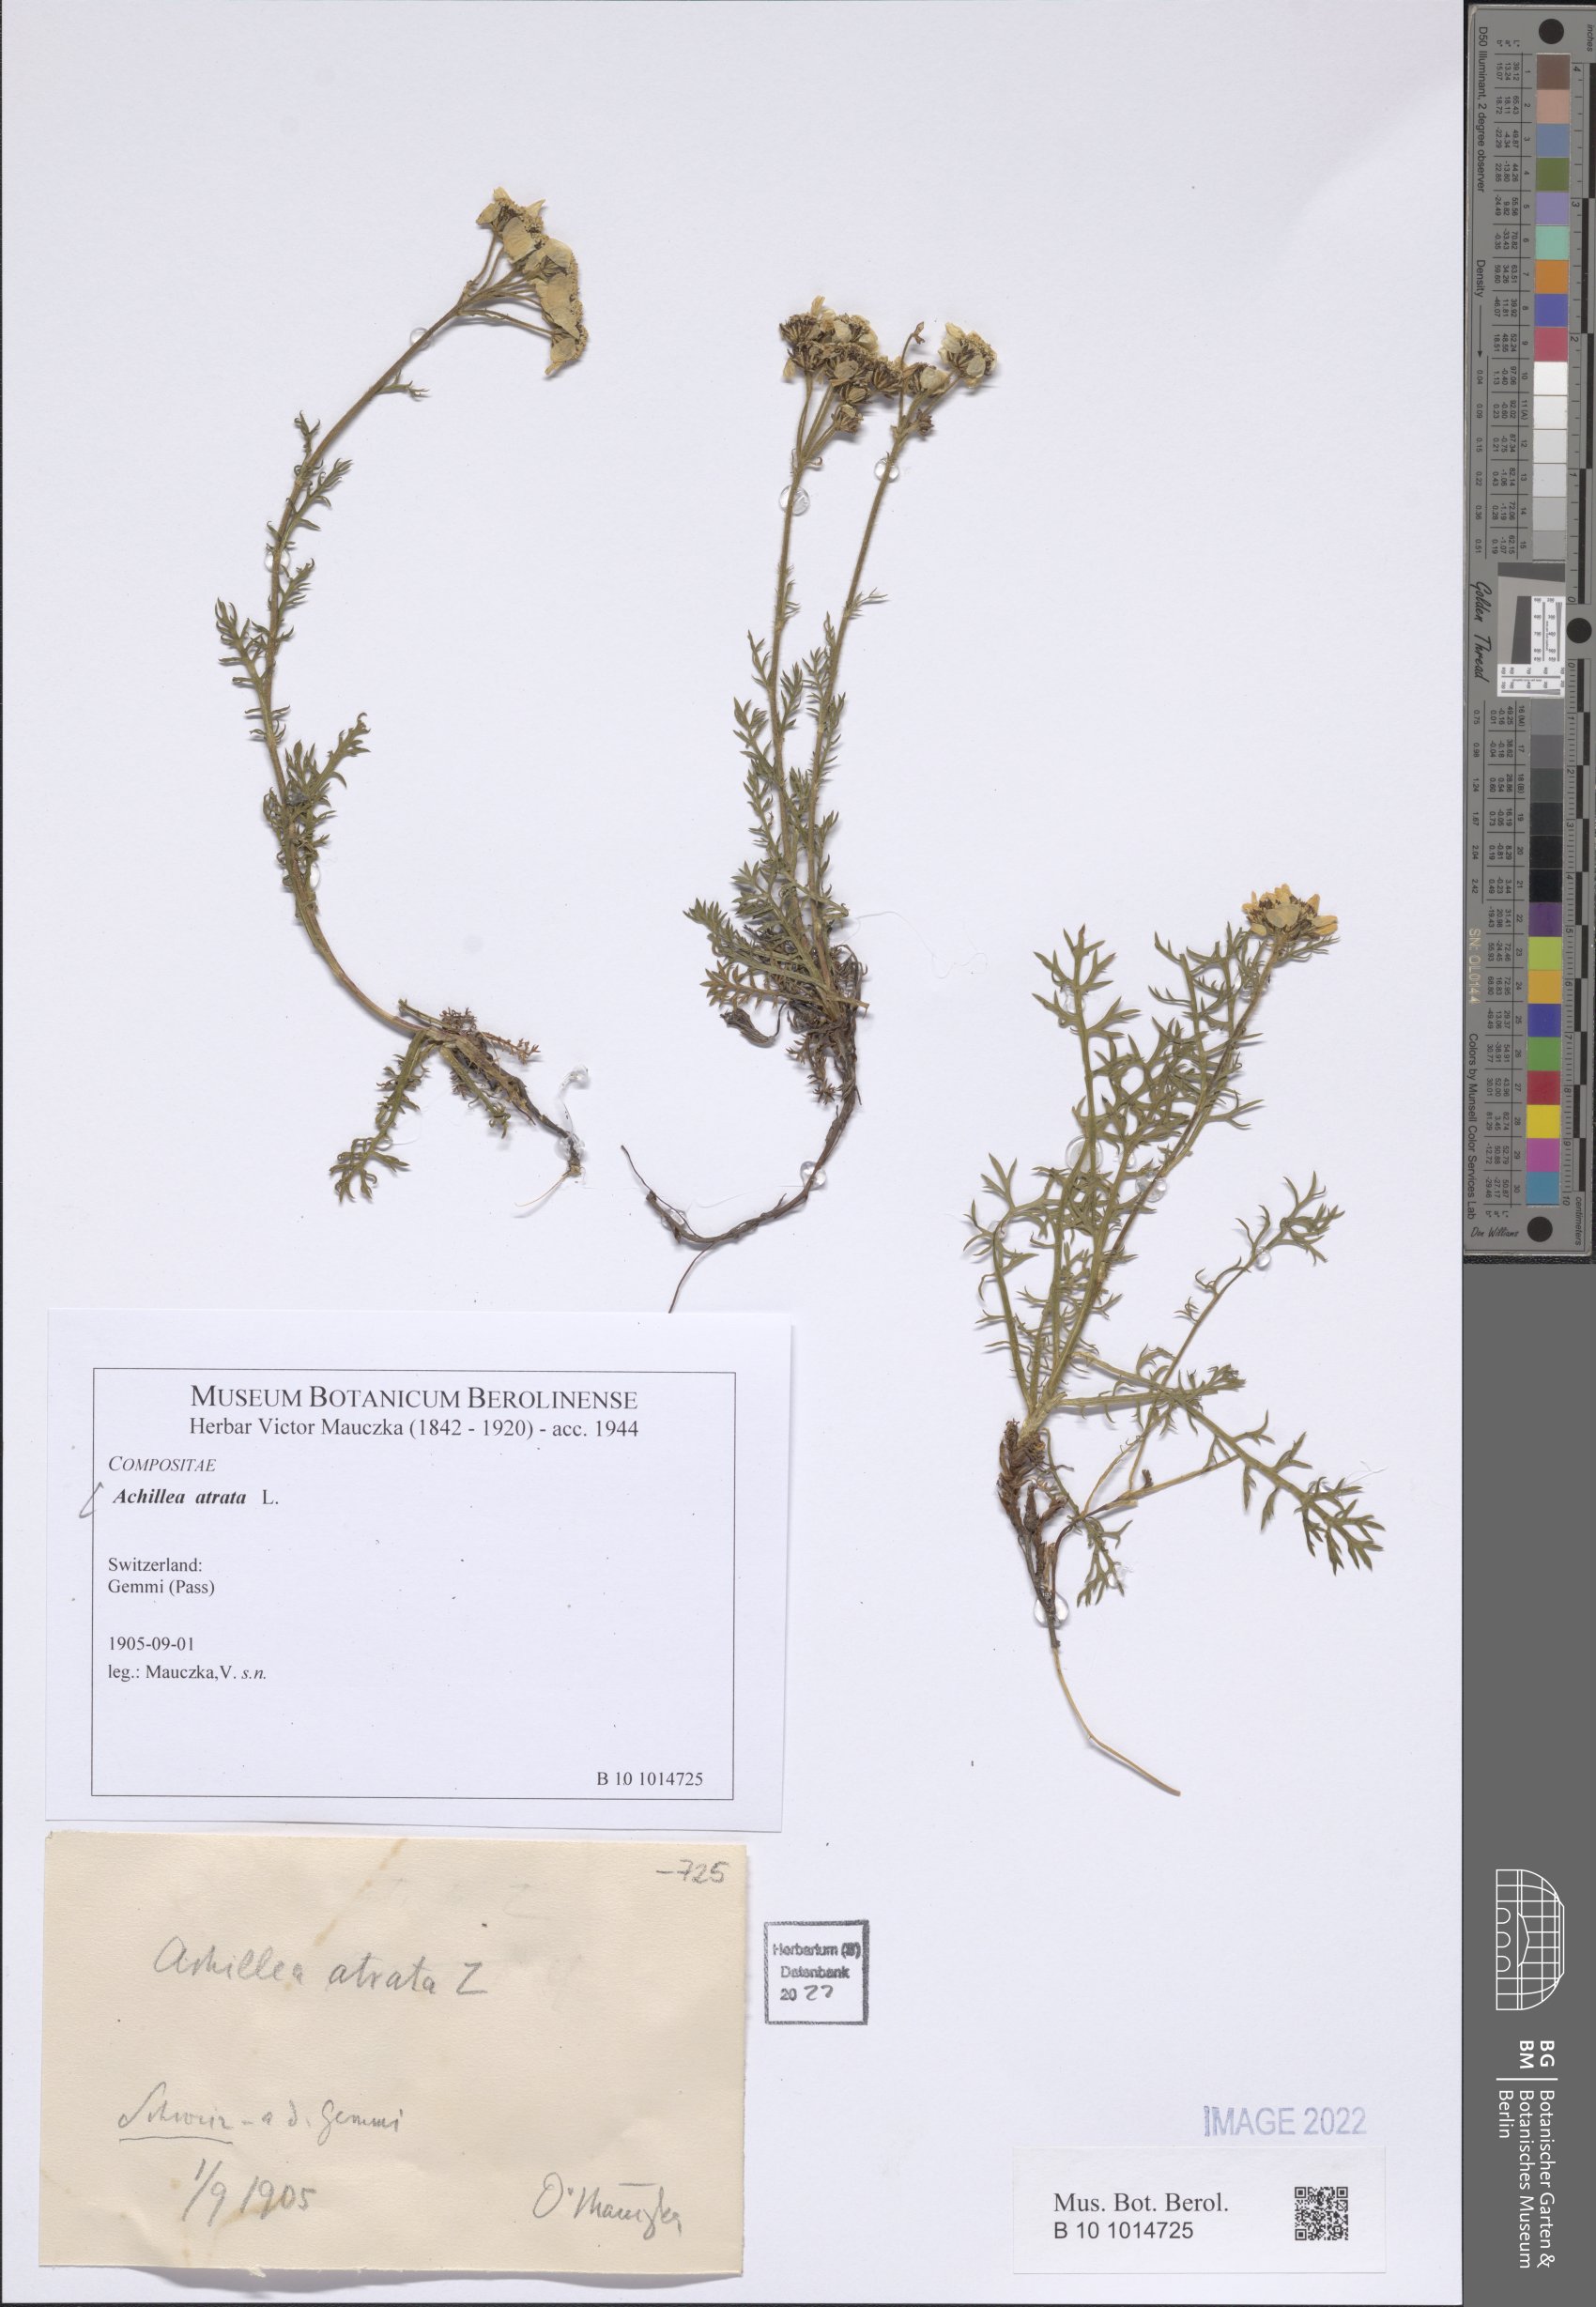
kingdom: Plantae
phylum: Tracheophyta
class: Magnoliopsida
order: Asterales
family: Asteraceae
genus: Achillea
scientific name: Achillea atrata
